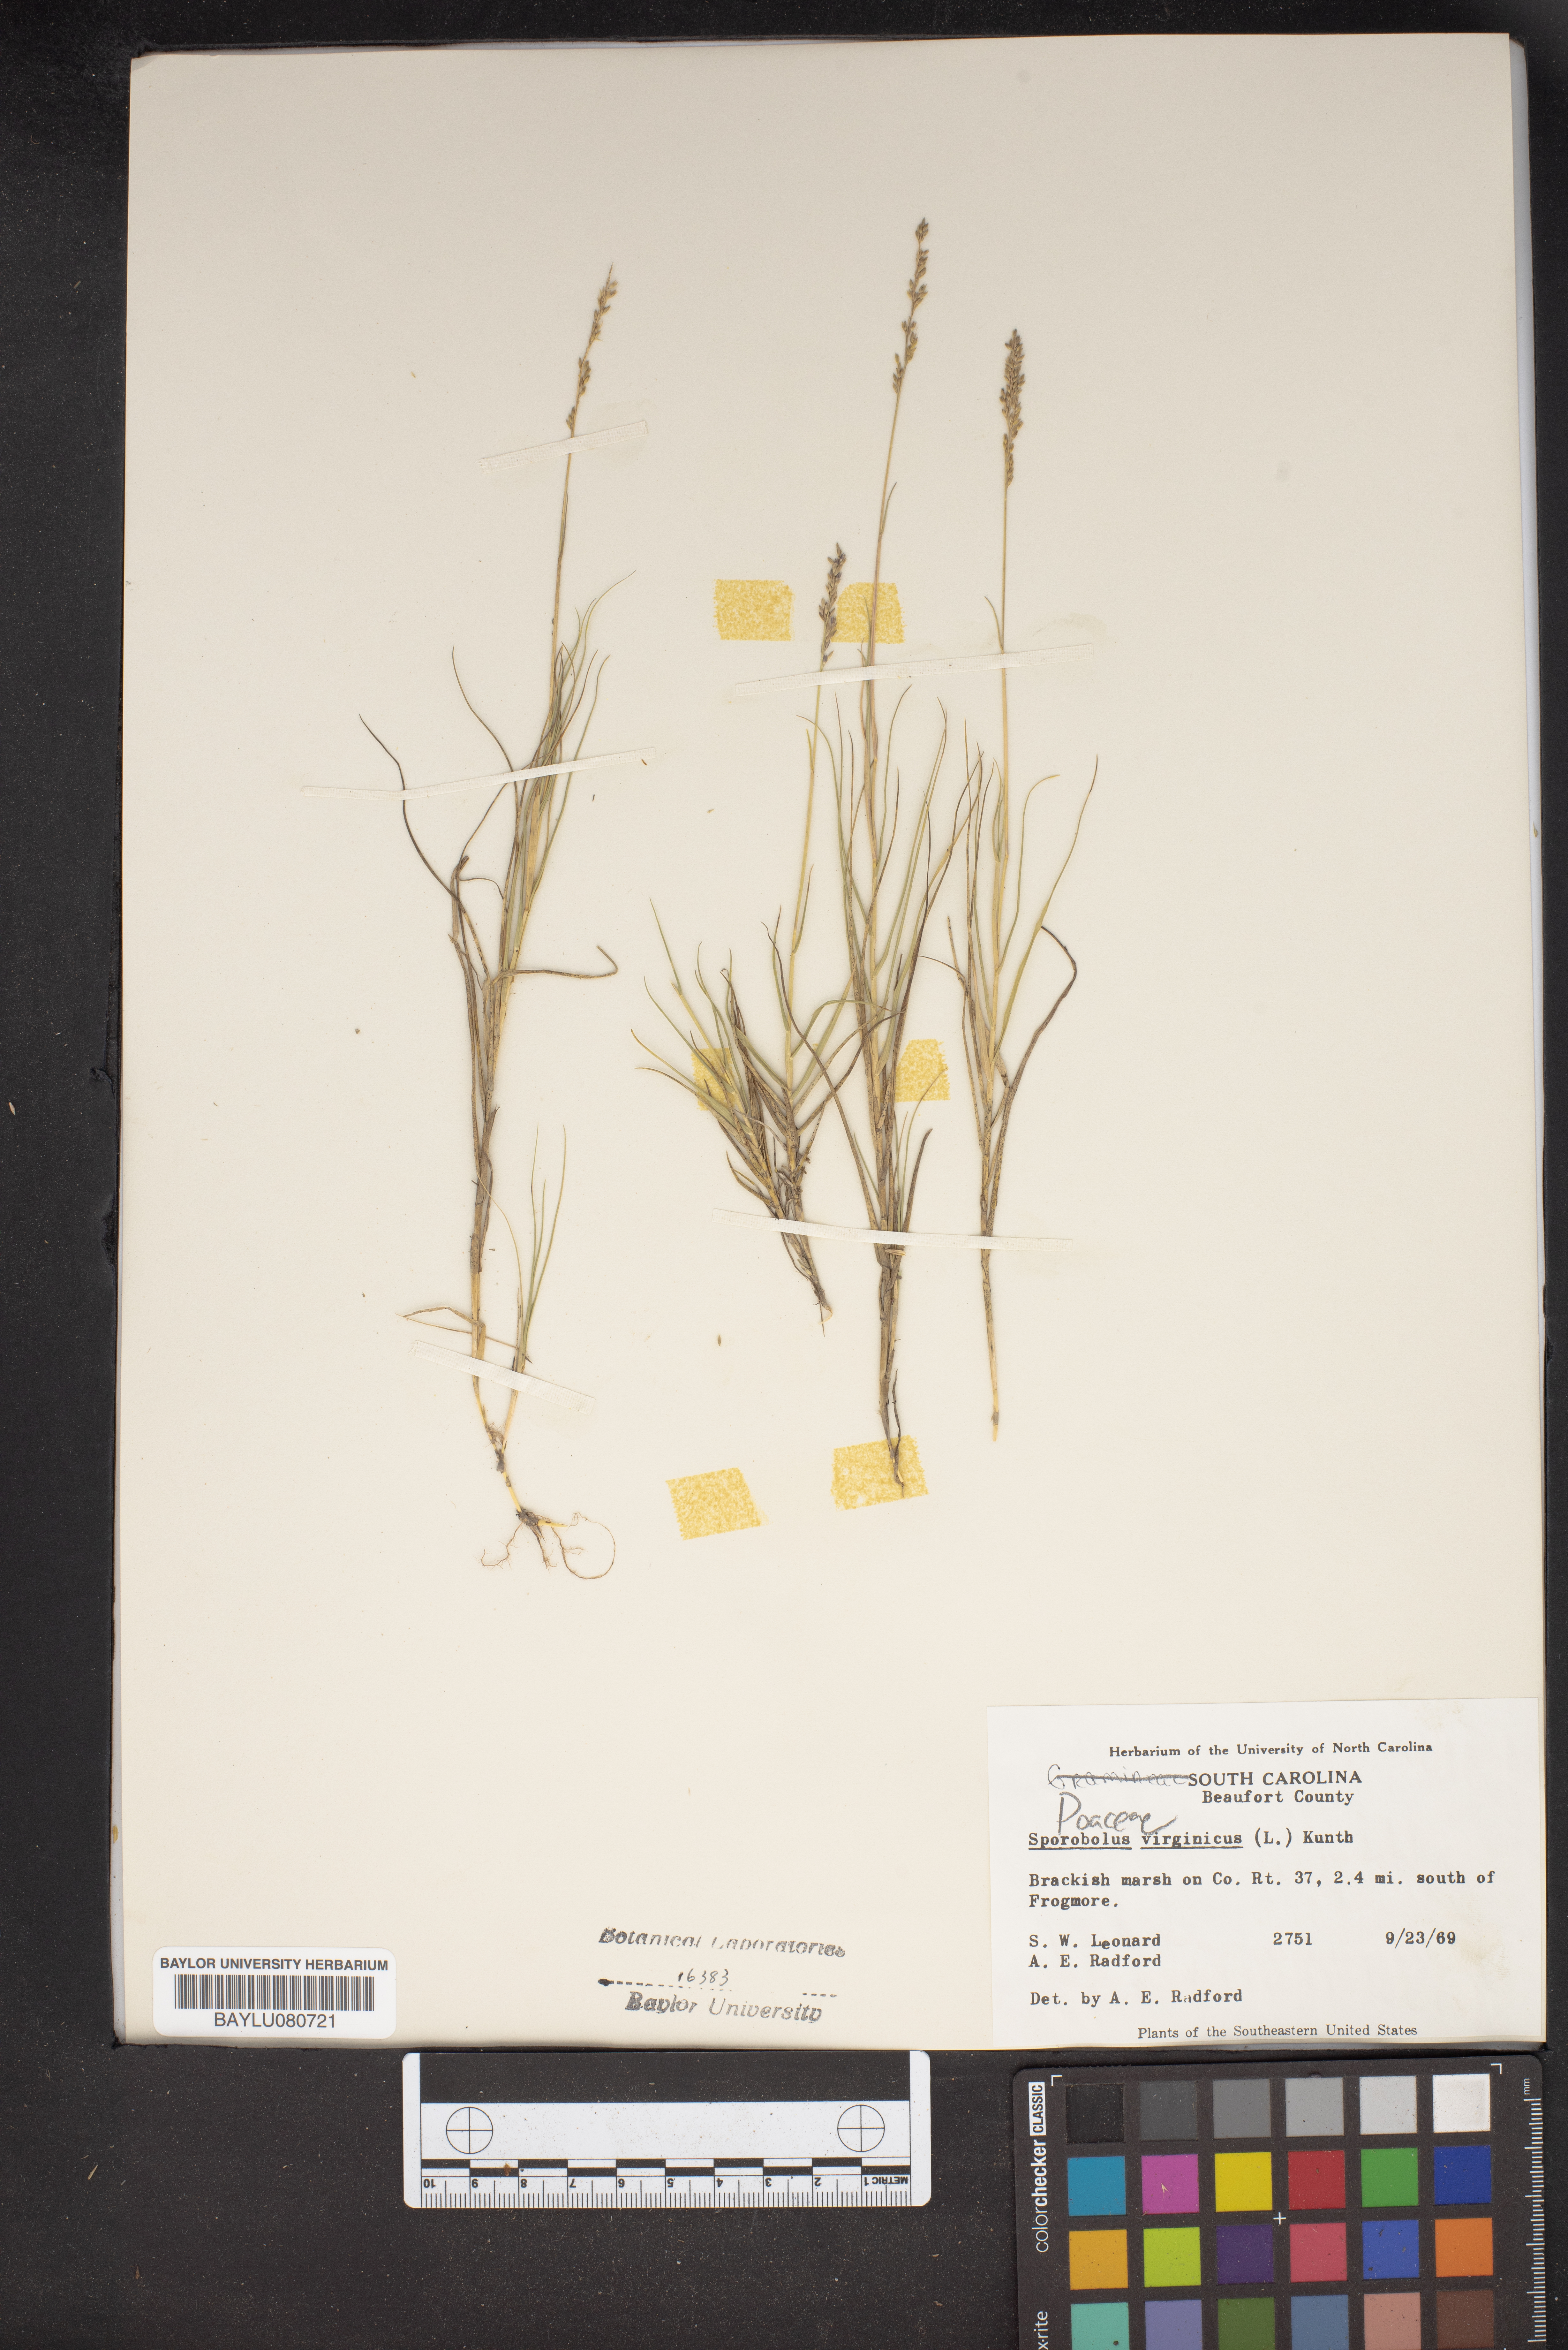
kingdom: Plantae
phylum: Tracheophyta
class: Liliopsida
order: Poales
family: Poaceae
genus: Sporobolus
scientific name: Sporobolus virginicus
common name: Beach dropseed
